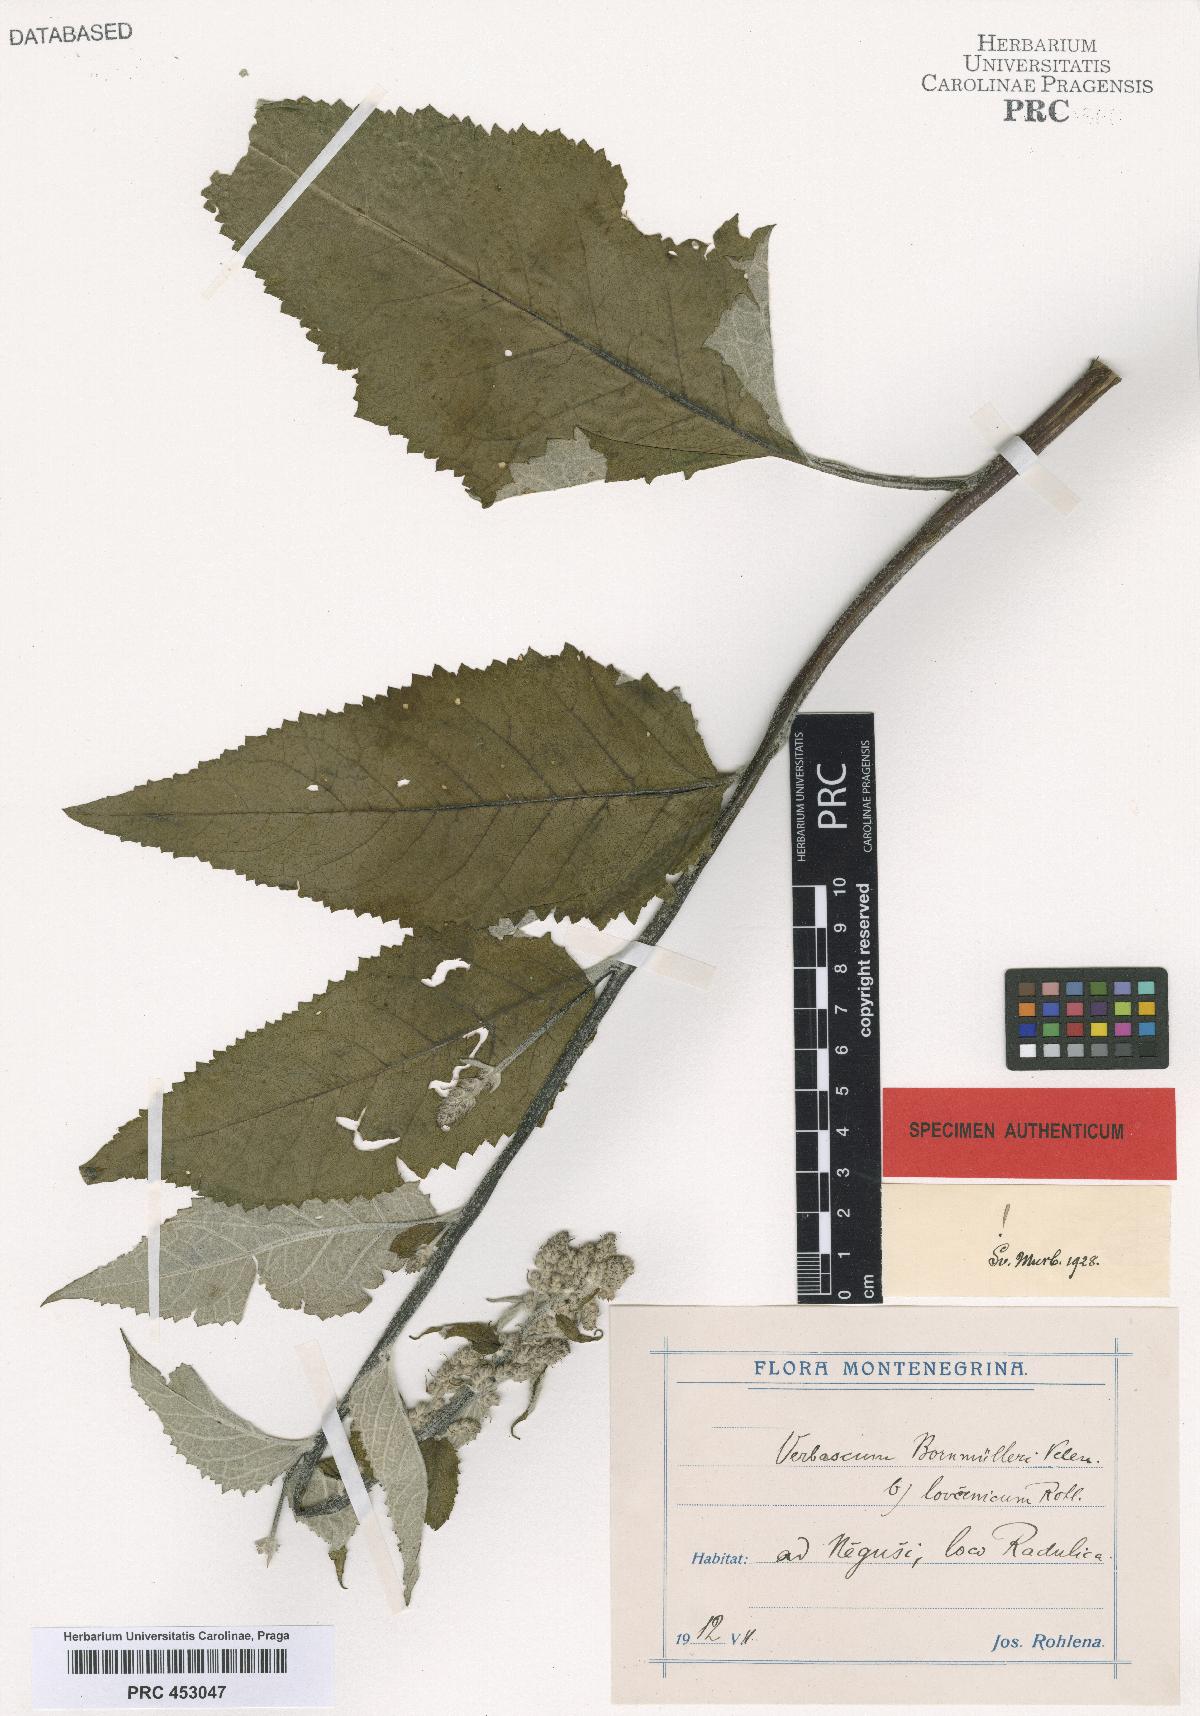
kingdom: Plantae
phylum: Tracheophyta
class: Magnoliopsida
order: Lamiales
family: Scrophulariaceae
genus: Verbascum
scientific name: Verbascum nigrum
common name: Dark mullein
